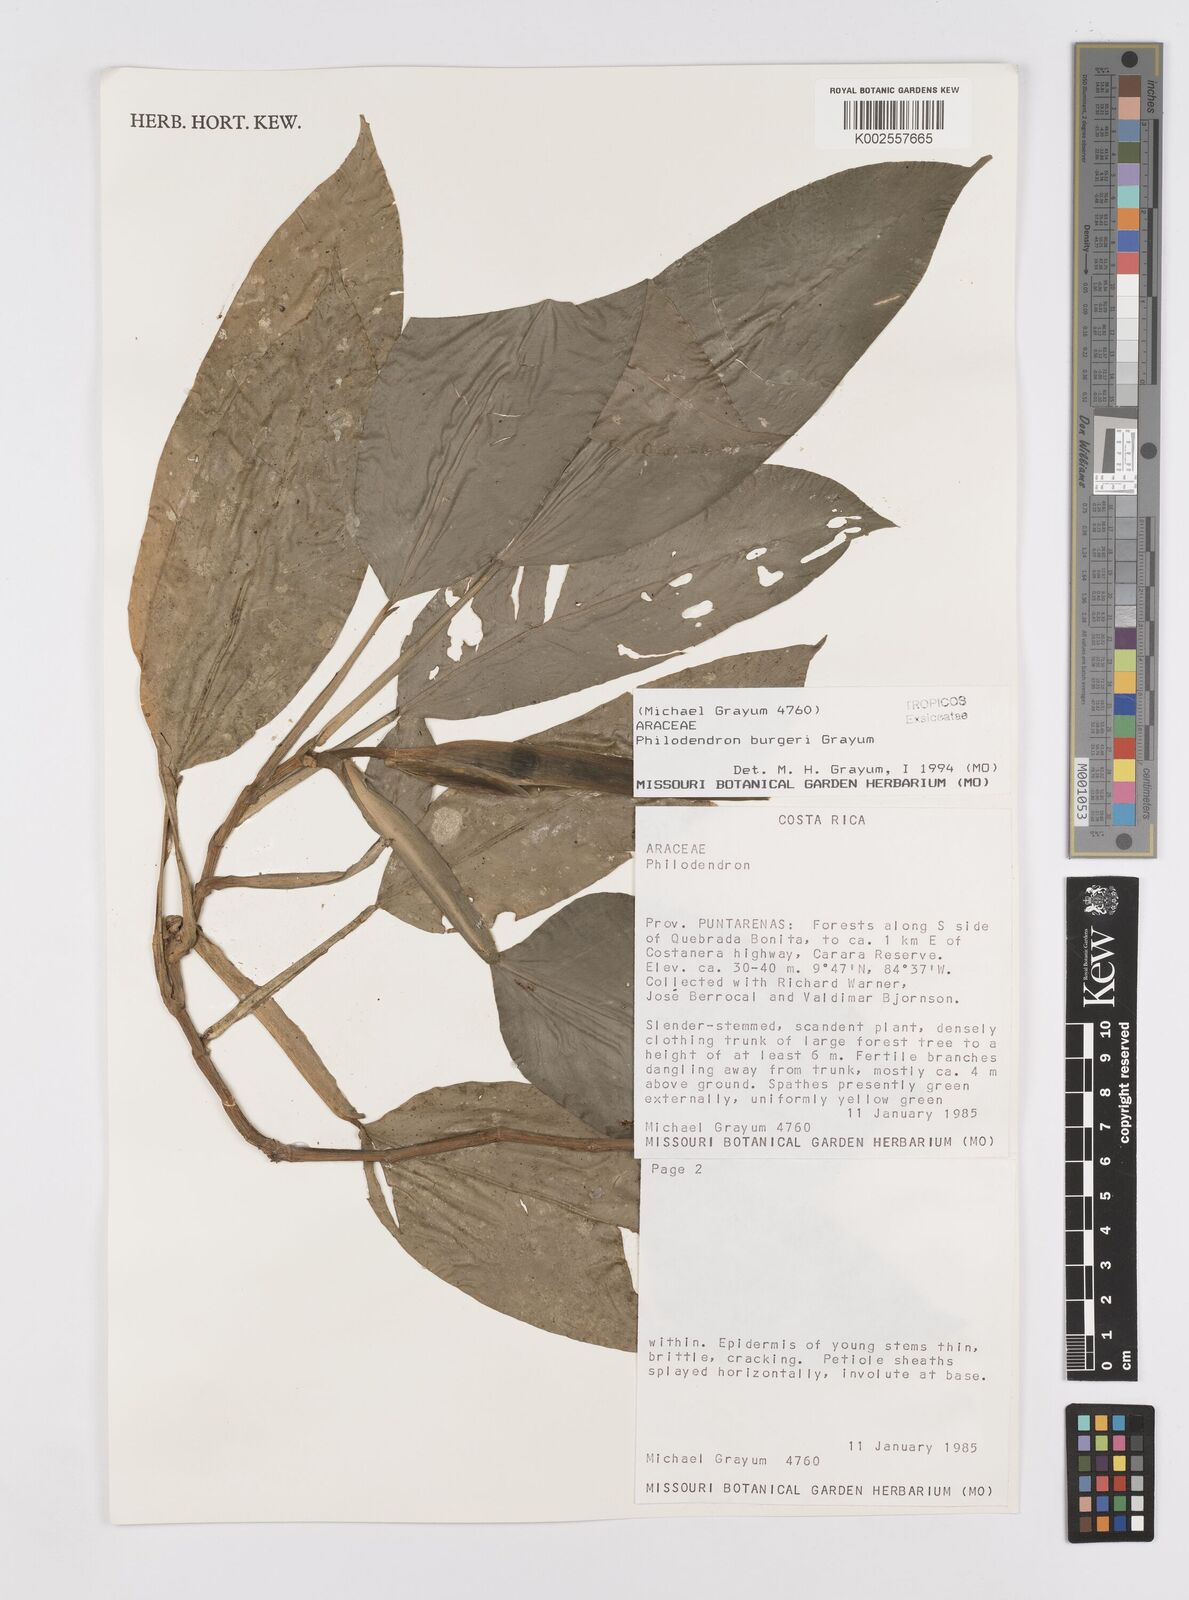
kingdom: Plantae
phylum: Tracheophyta
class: Liliopsida
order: Alismatales
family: Araceae
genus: Philodendron
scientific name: Philodendron burgeri
